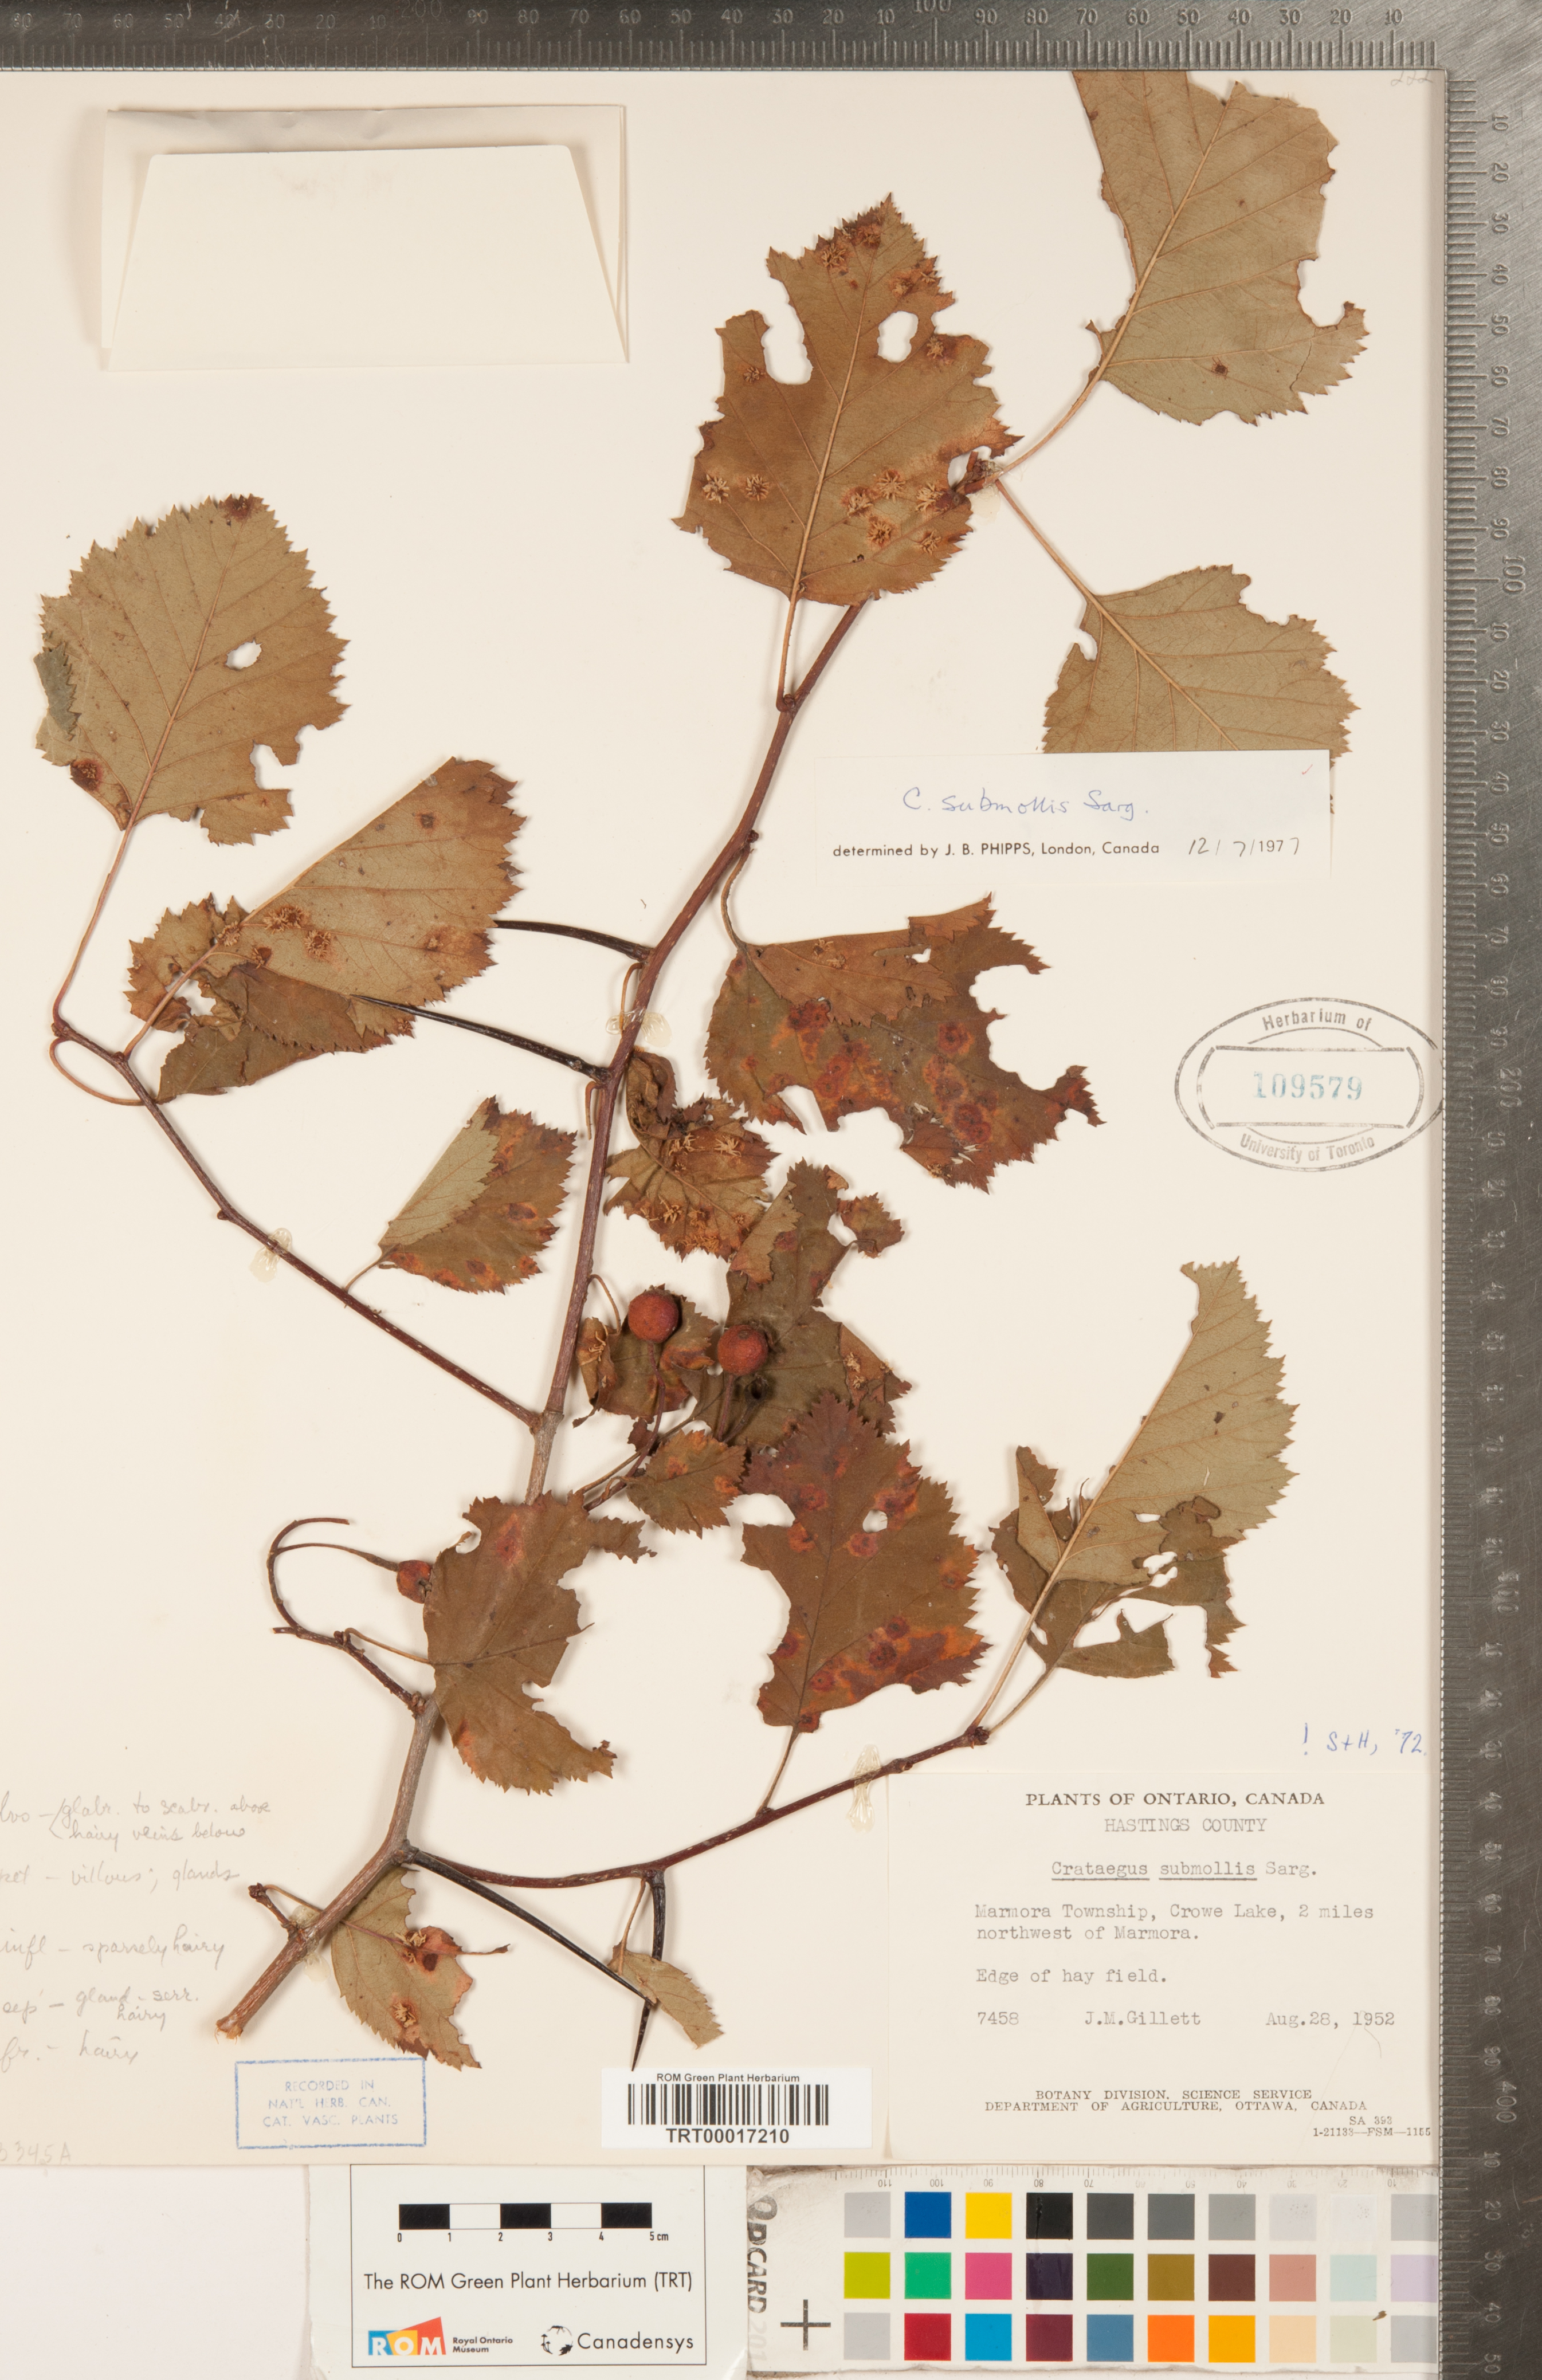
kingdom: Plantae
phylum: Tracheophyta
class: Magnoliopsida
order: Rosales
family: Rosaceae
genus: Crataegus
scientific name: Crataegus submollis
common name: Hairy cockspurthorn
